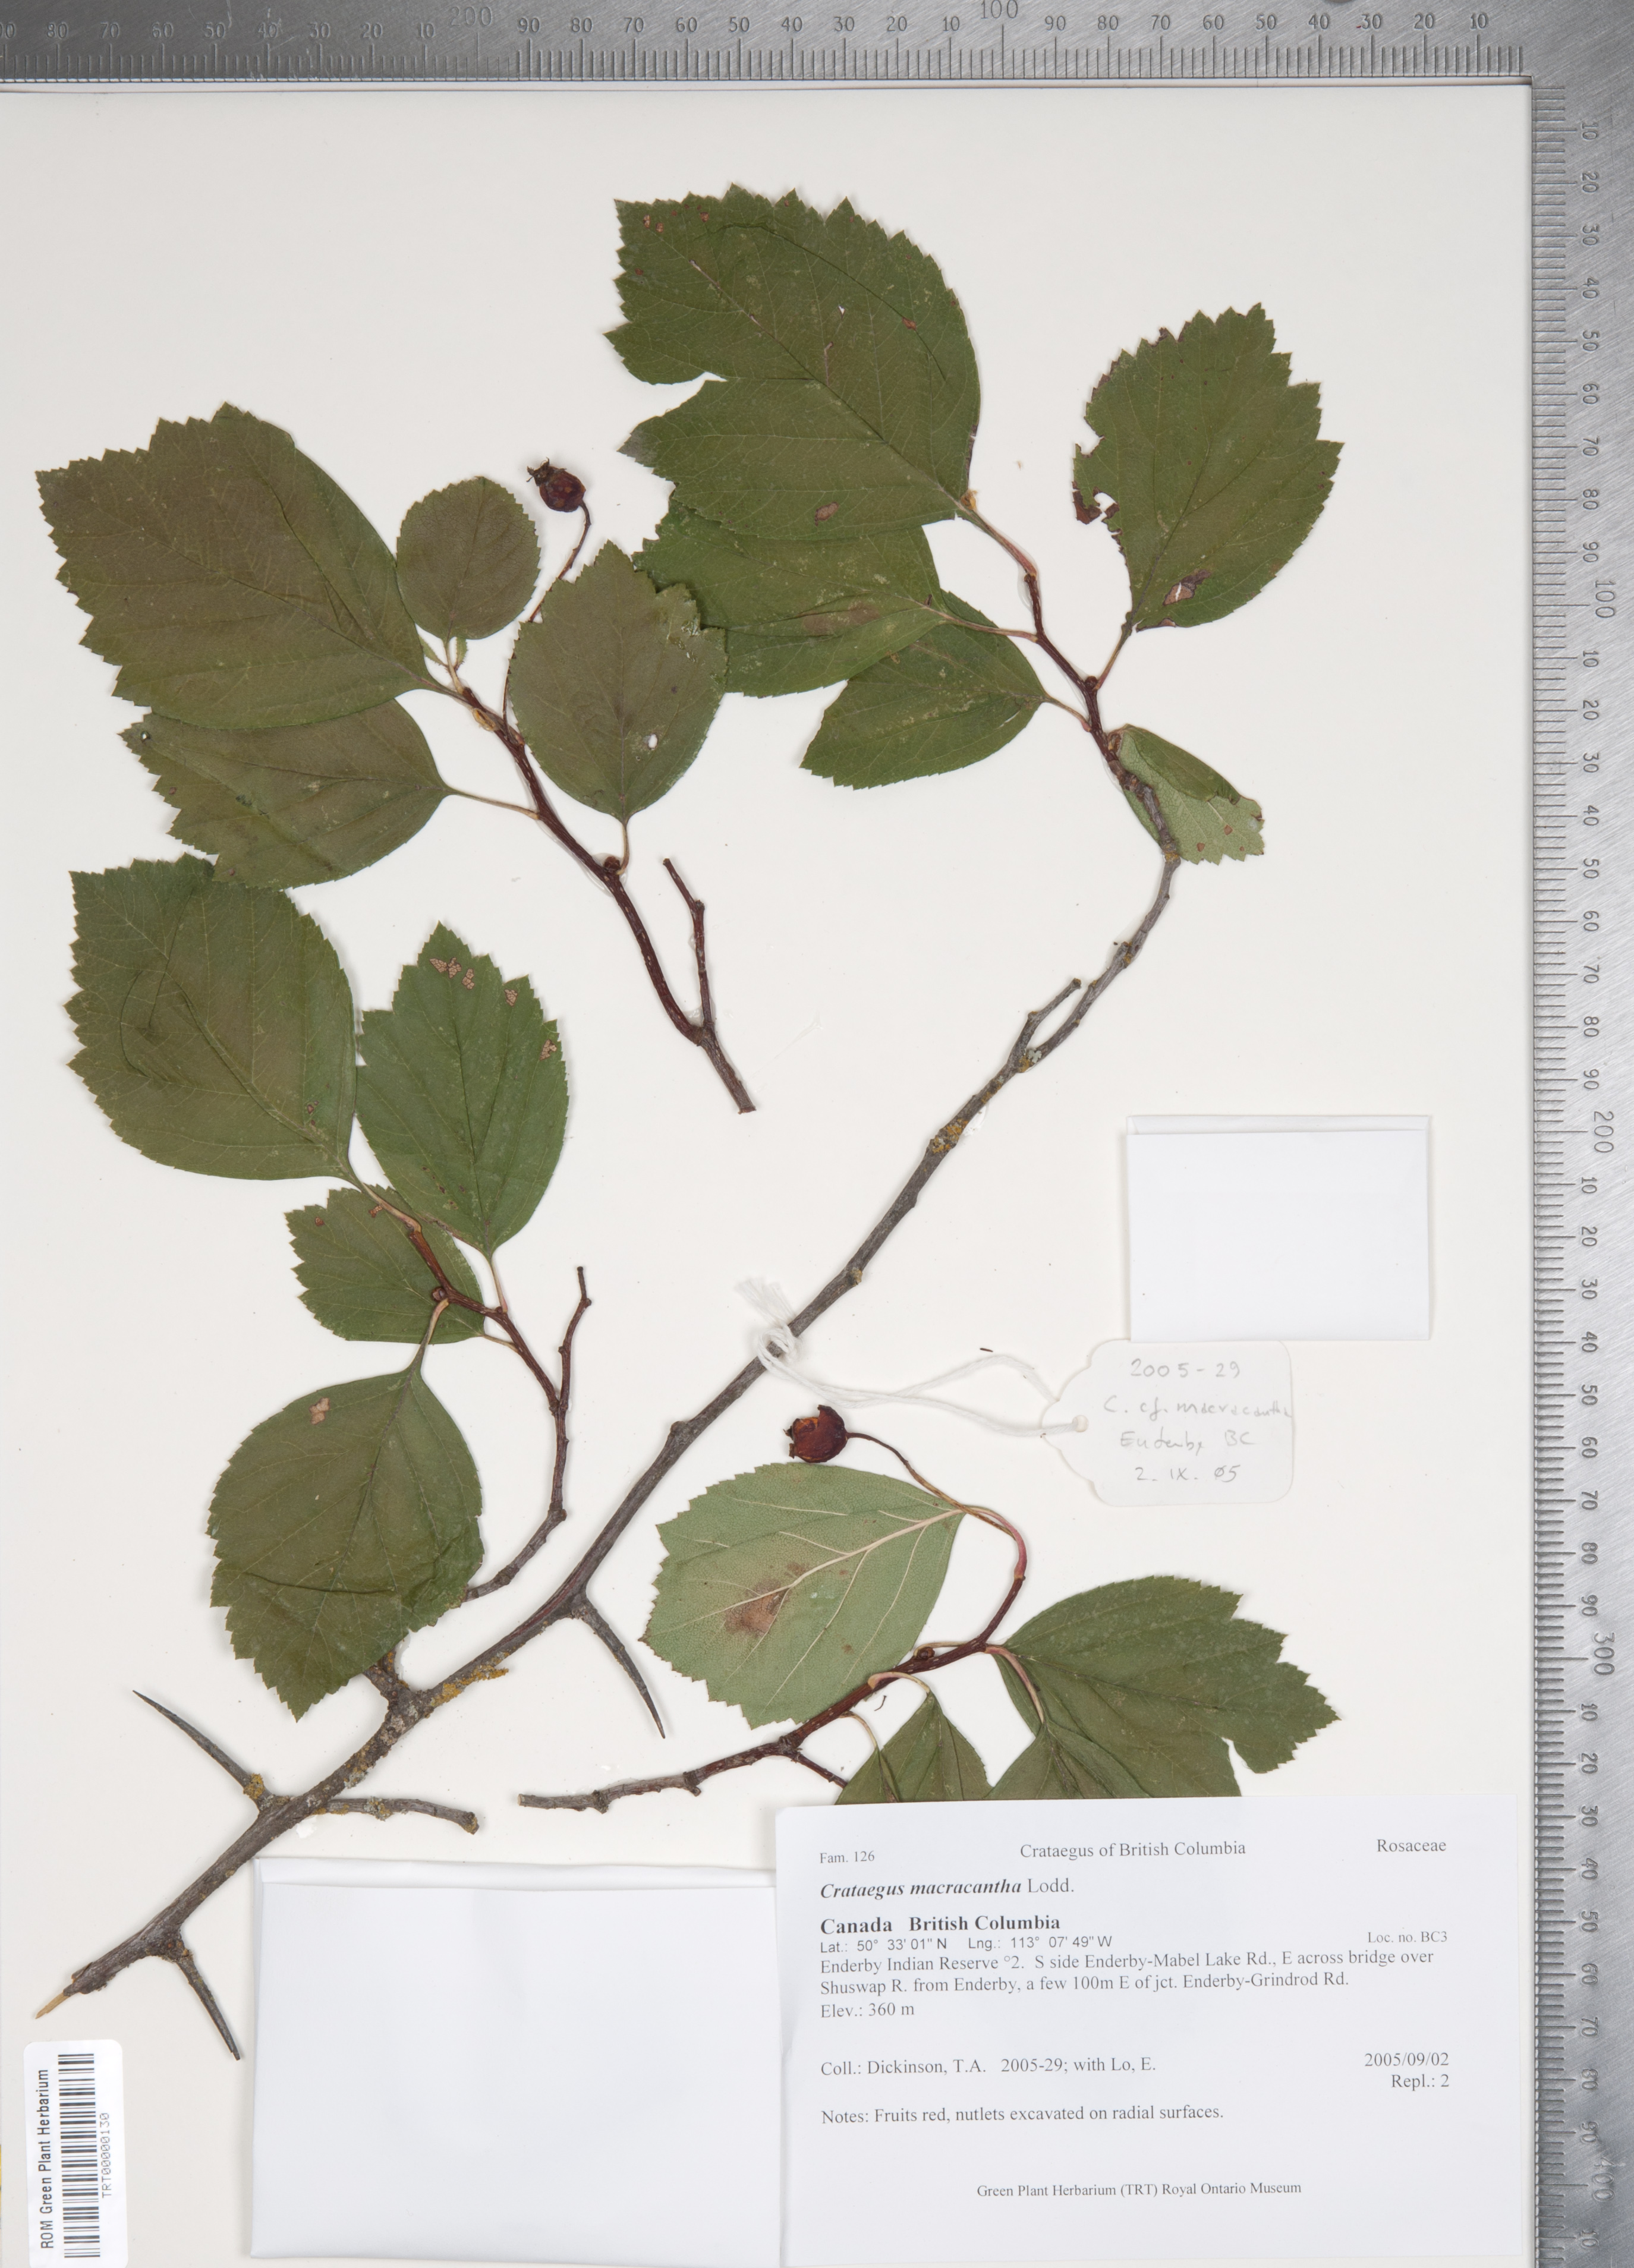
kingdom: Plantae
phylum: Tracheophyta
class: Magnoliopsida
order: Rosales
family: Rosaceae
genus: Crataegus
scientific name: Crataegus macracantha
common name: Large-thorn hawthorn
